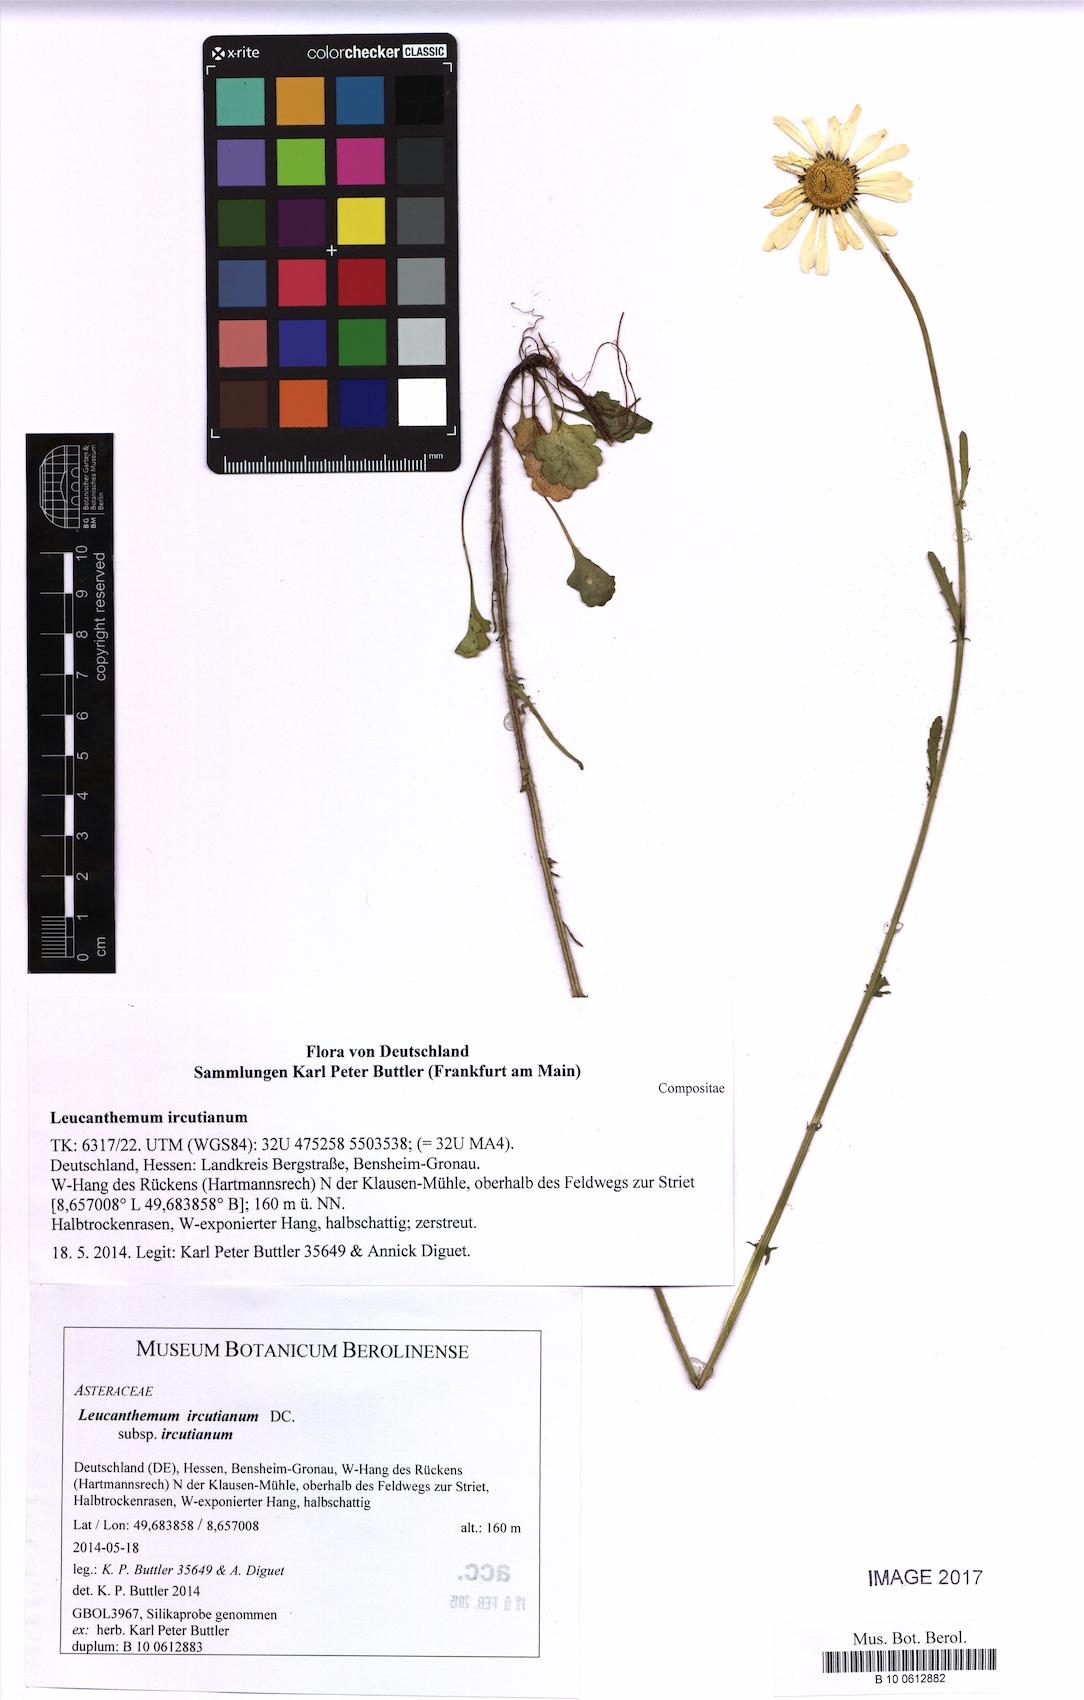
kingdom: Plantae
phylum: Tracheophyta
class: Magnoliopsida
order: Asterales
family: Asteraceae
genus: Leucanthemum
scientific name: Leucanthemum ircutianum
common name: Daisy
